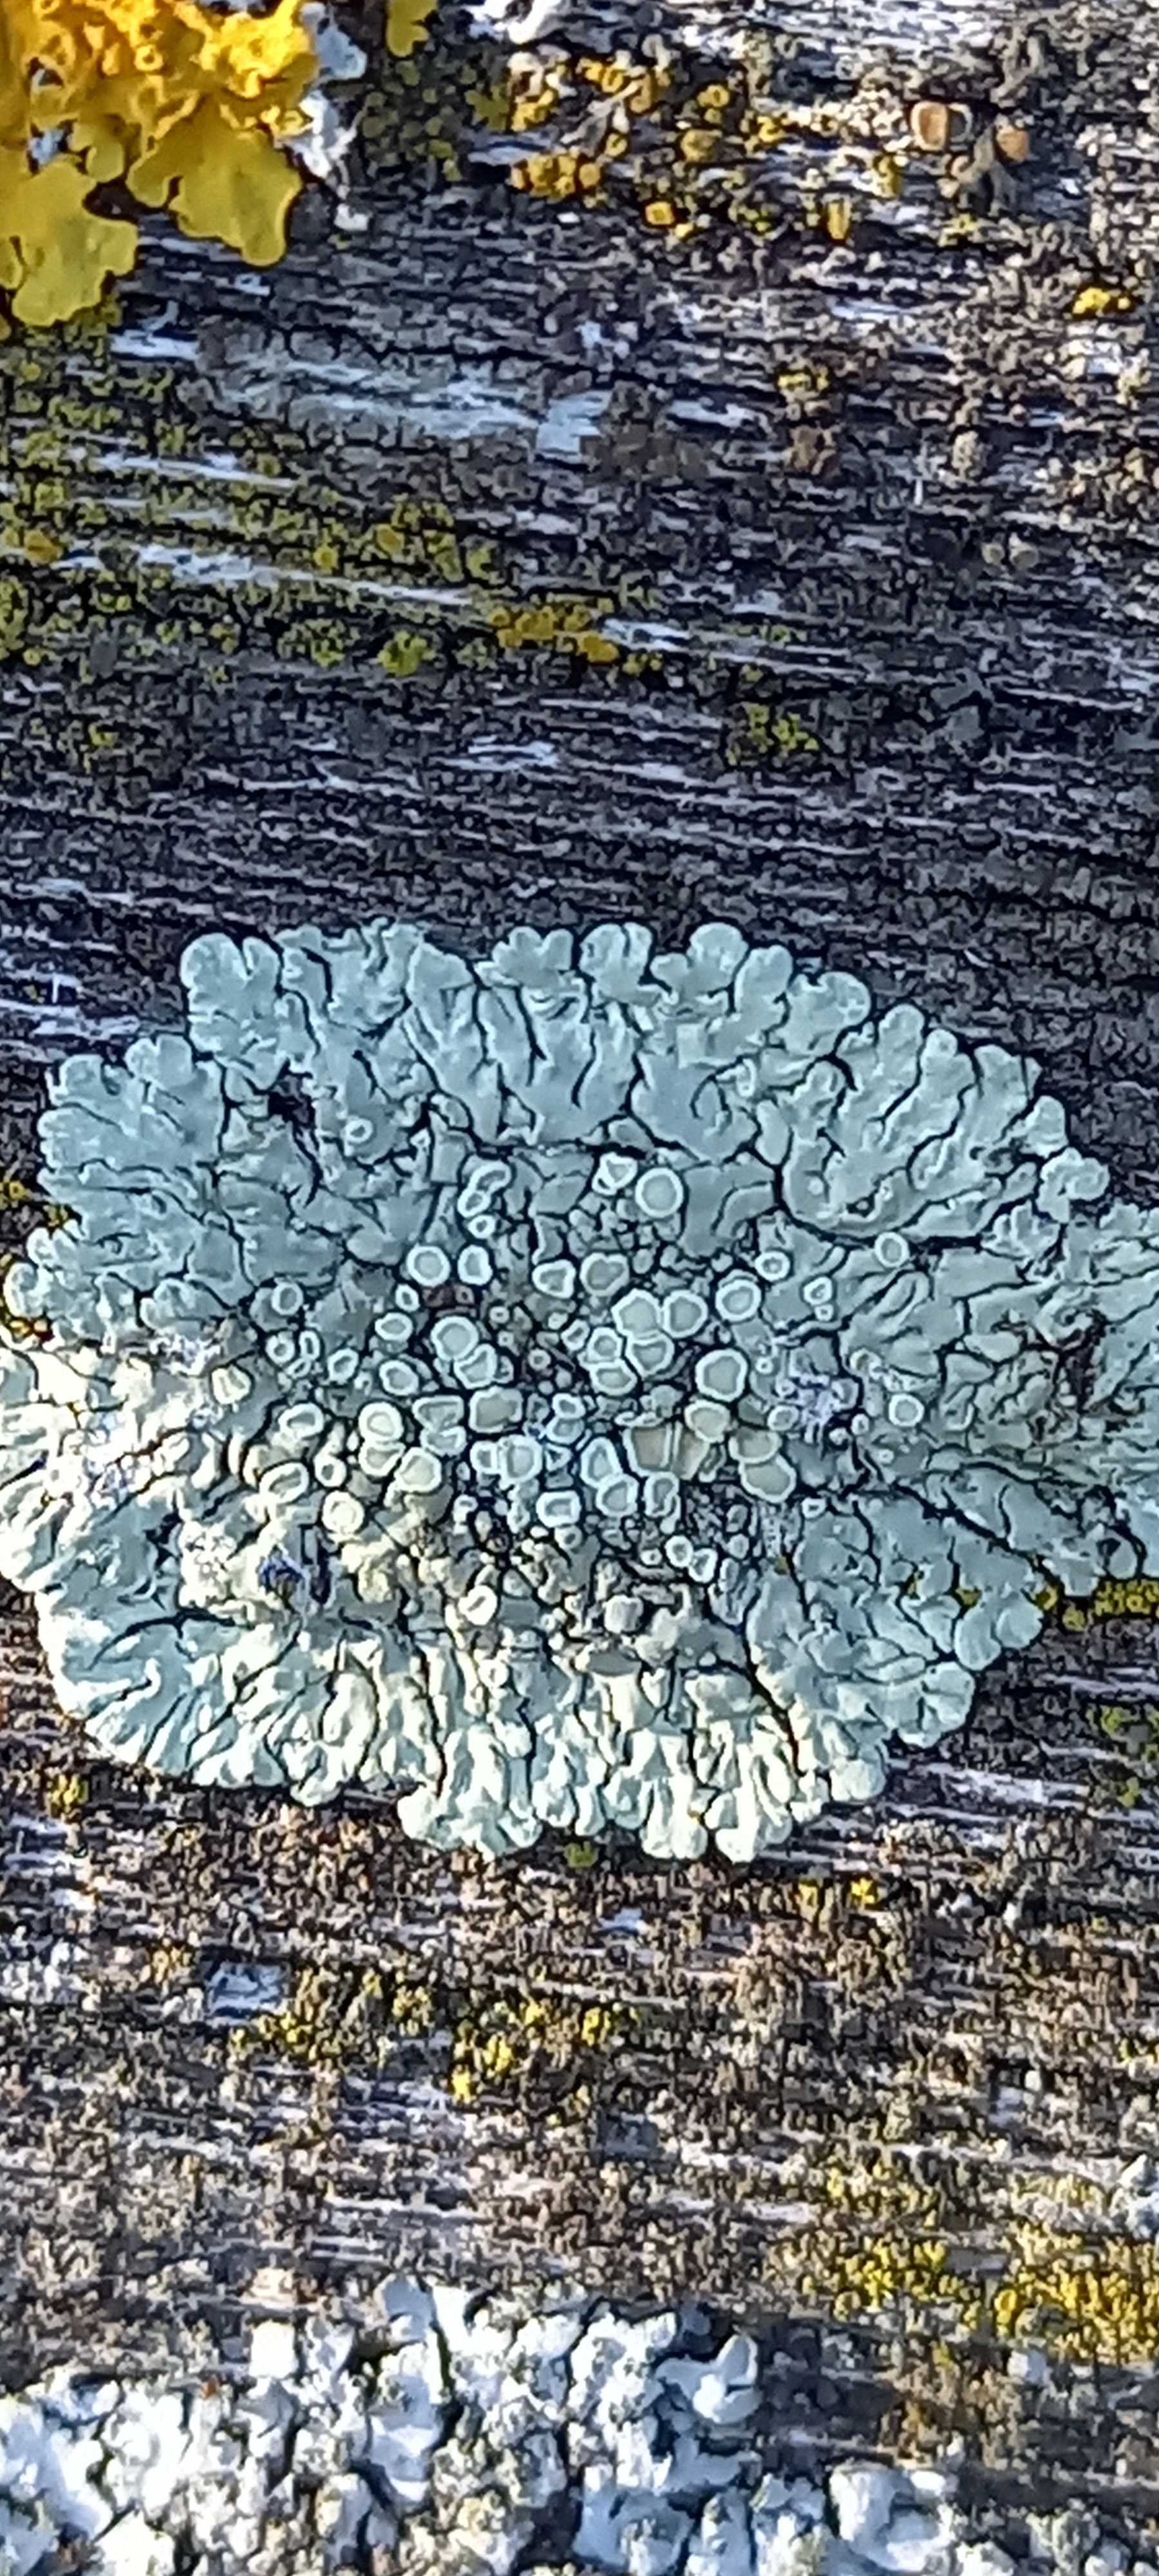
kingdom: Fungi
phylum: Ascomycota
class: Lecanoromycetes
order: Lecanorales
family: Lecanoraceae
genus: Protoparmeliopsis
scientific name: Protoparmeliopsis muralis
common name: randfliget kantskivelav
